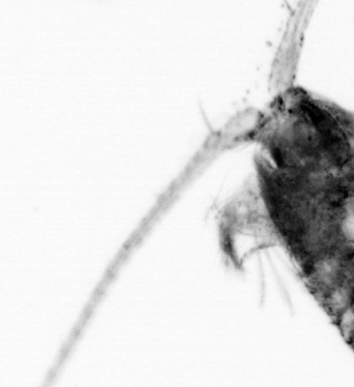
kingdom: Animalia
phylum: Arthropoda
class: Copepoda
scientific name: Copepoda
